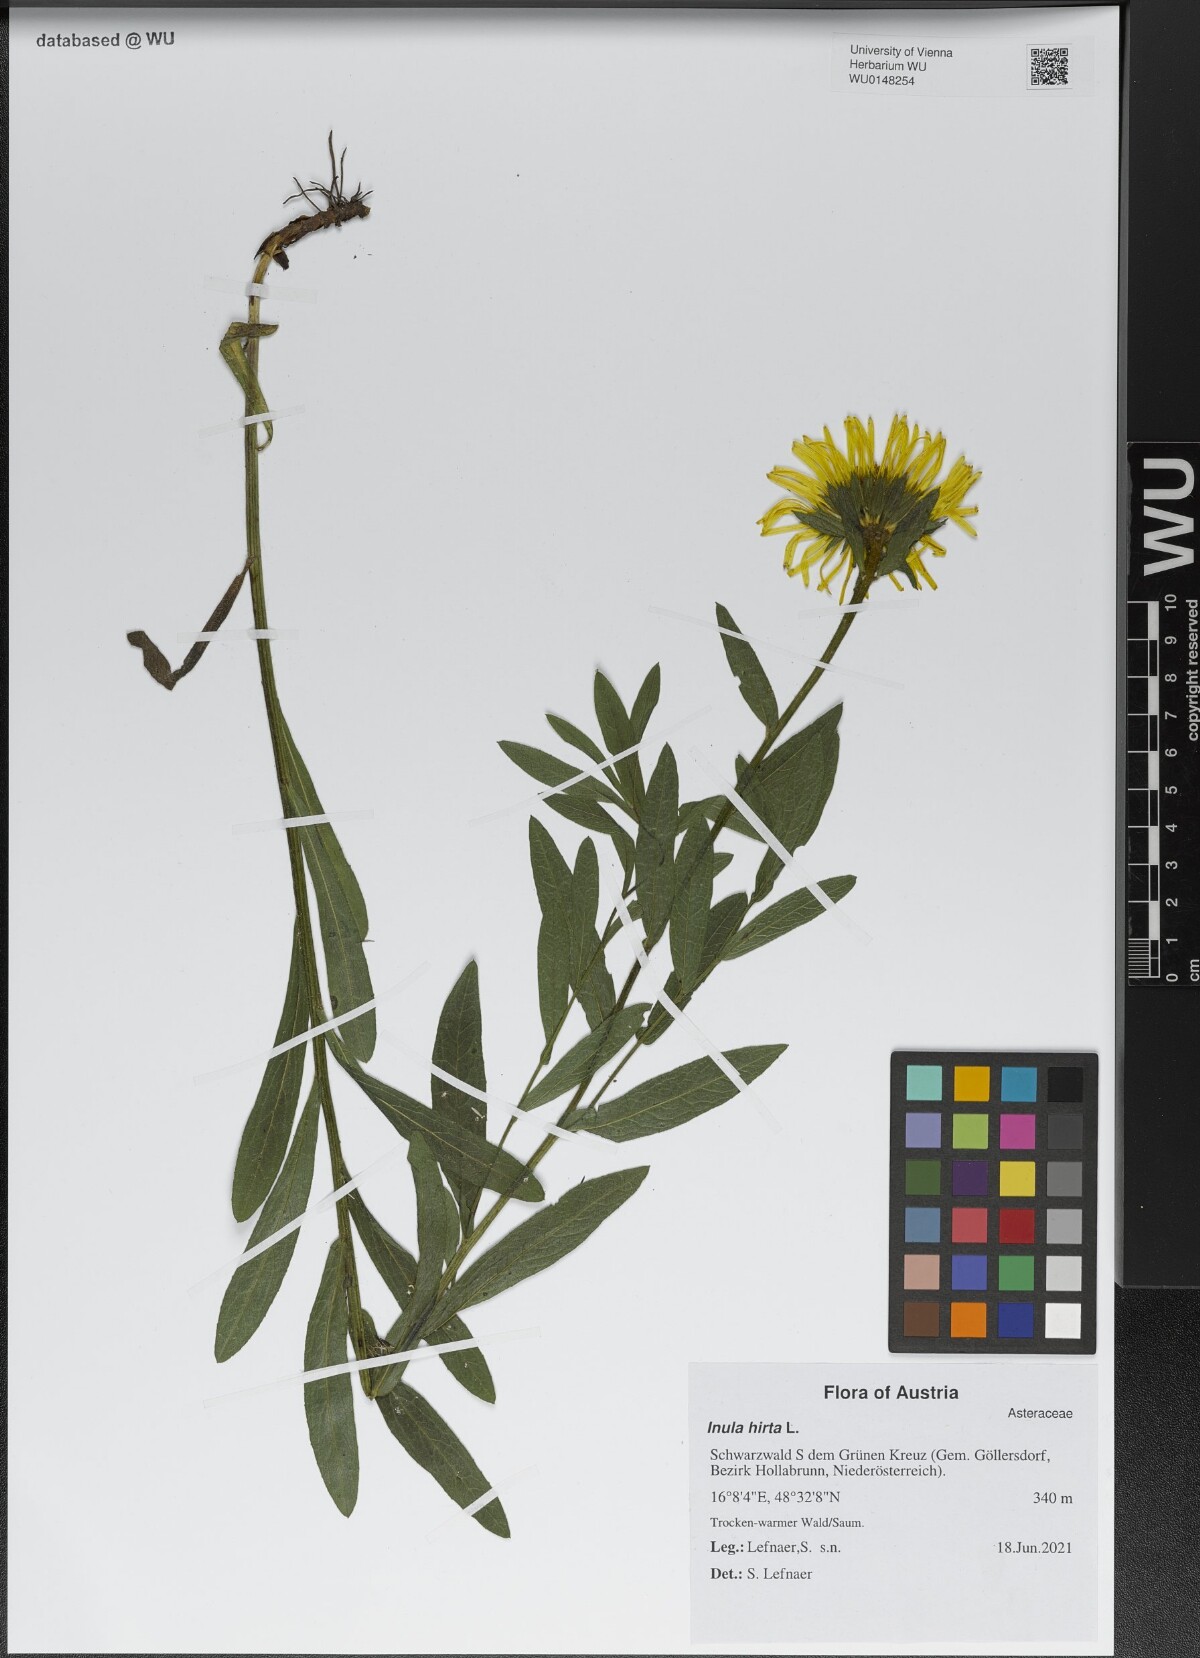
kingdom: Plantae
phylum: Tracheophyta
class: Magnoliopsida
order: Asterales
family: Asteraceae
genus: Pentanema
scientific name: Pentanema hirtum
